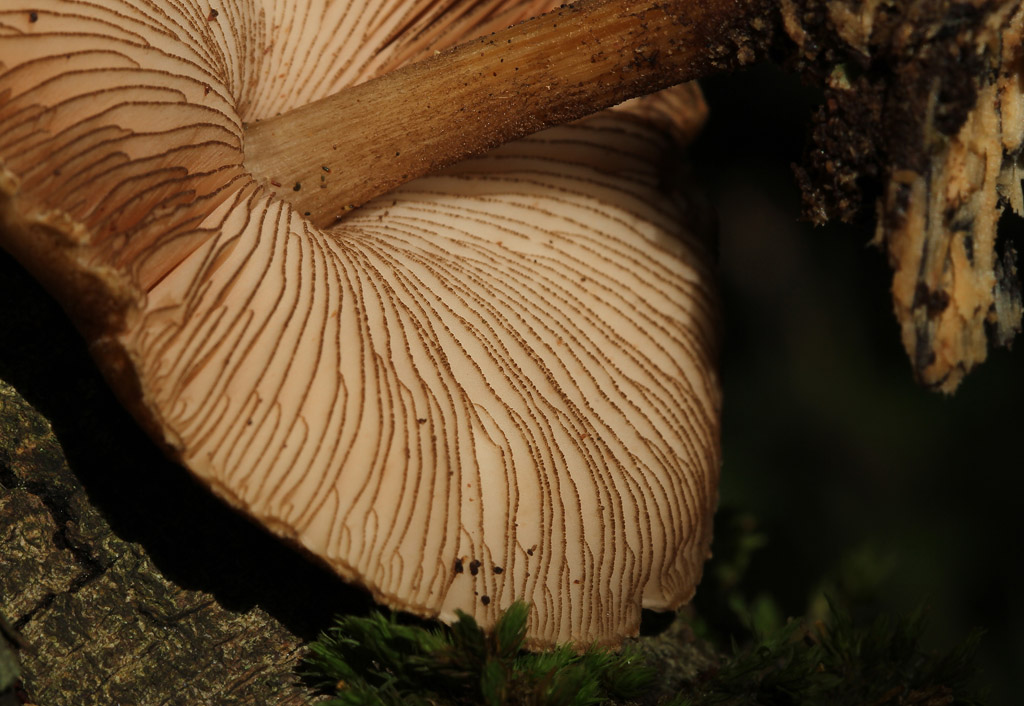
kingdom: Fungi
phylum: Basidiomycota
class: Agaricomycetes
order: Agaricales
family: Pluteaceae
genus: Pluteus
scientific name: Pluteus umbrosus
